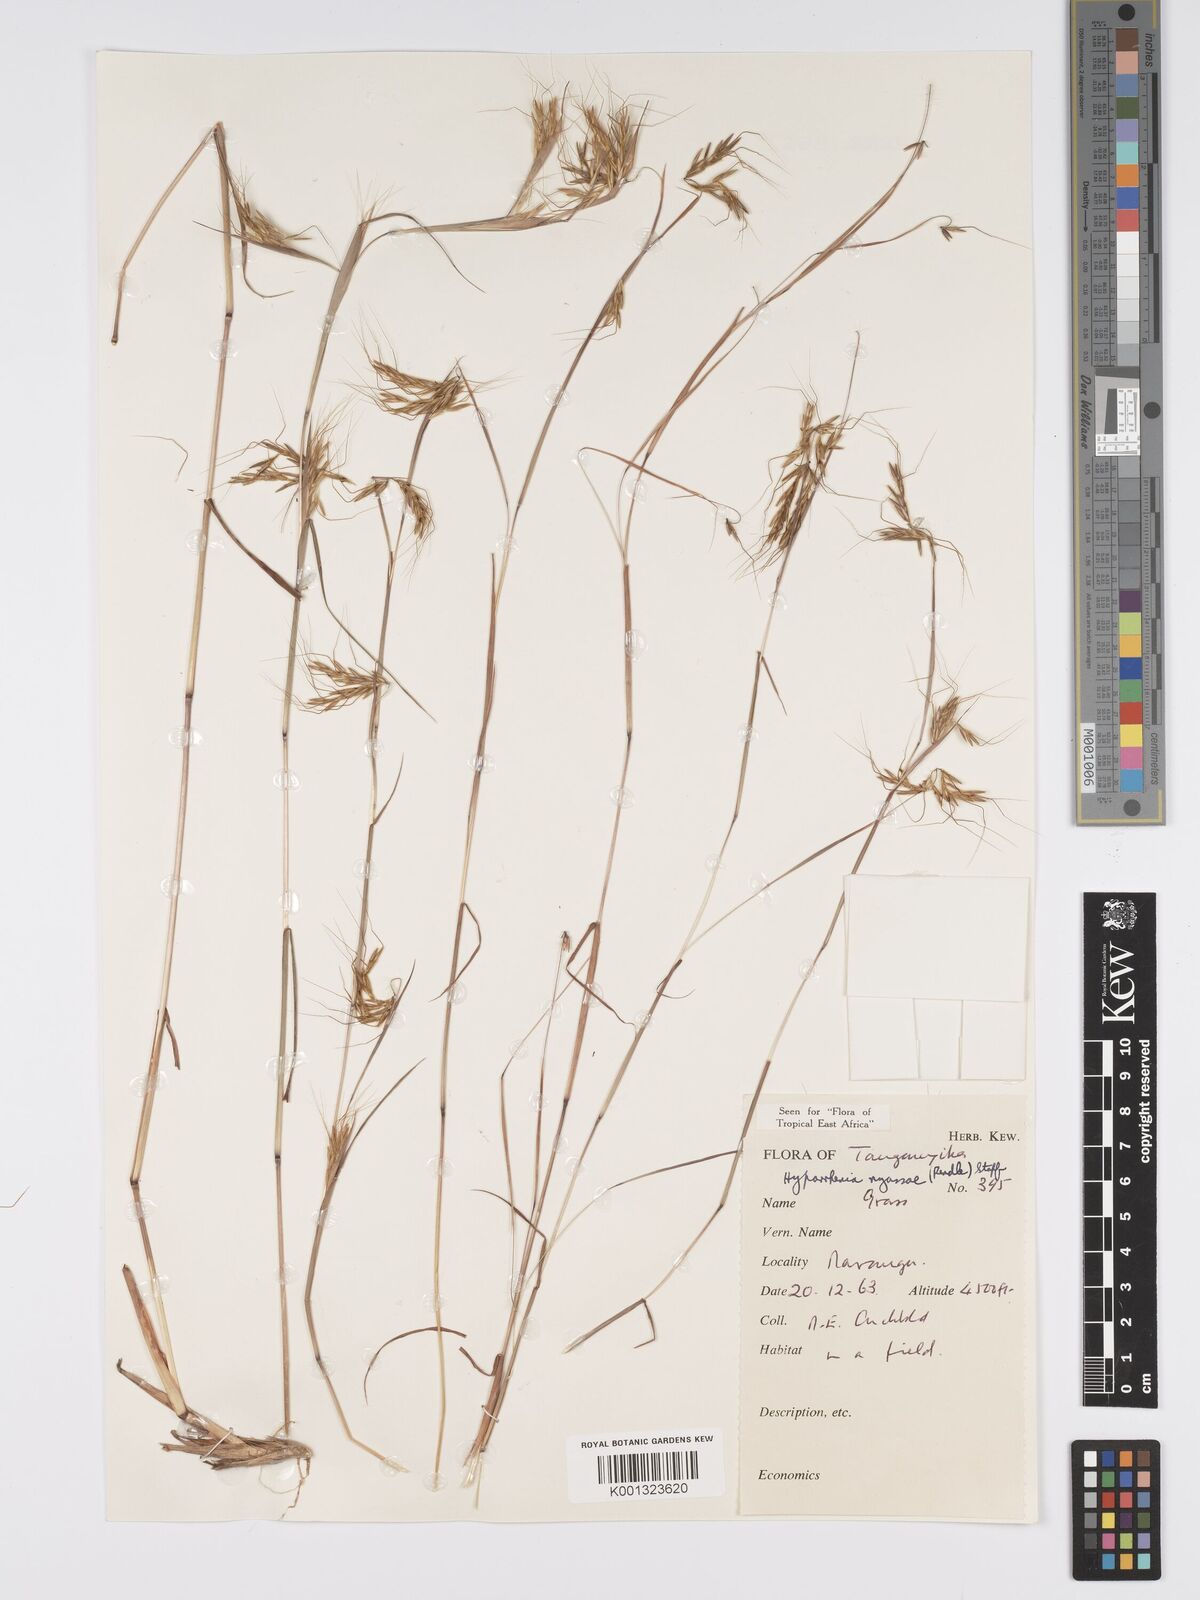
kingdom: Plantae
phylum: Tracheophyta
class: Liliopsida
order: Poales
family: Poaceae
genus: Hyparrhenia
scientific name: Hyparrhenia nyassae
